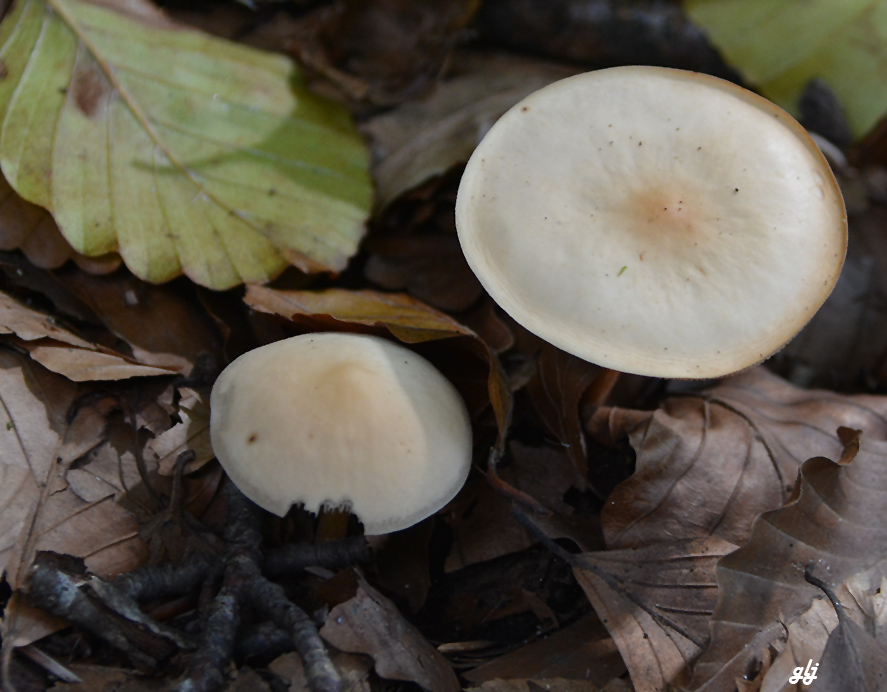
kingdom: Fungi
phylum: Basidiomycota
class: Agaricomycetes
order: Agaricales
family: Omphalotaceae
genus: Gymnopus
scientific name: Gymnopus dryophilus
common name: løv-fladhat
